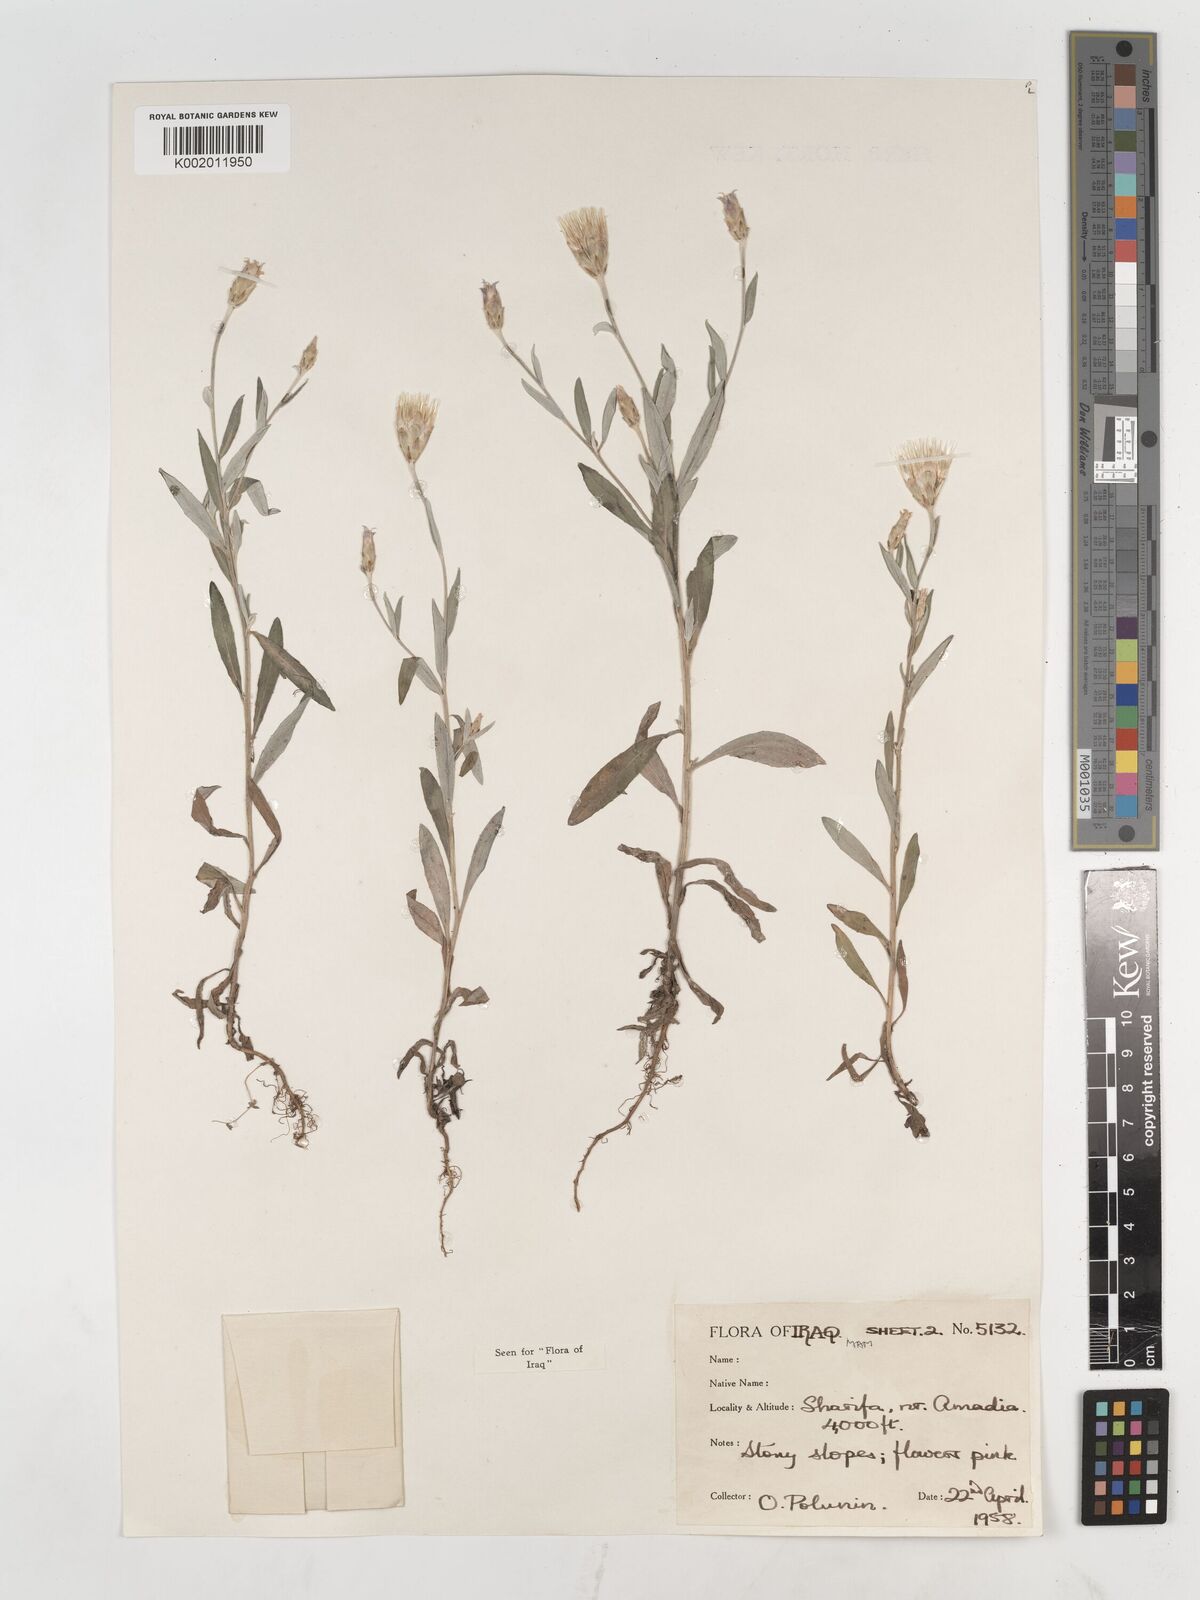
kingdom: Plantae
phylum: Tracheophyta
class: Magnoliopsida
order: Asterales
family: Asteraceae
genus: Chardinia
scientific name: Chardinia orientalis
